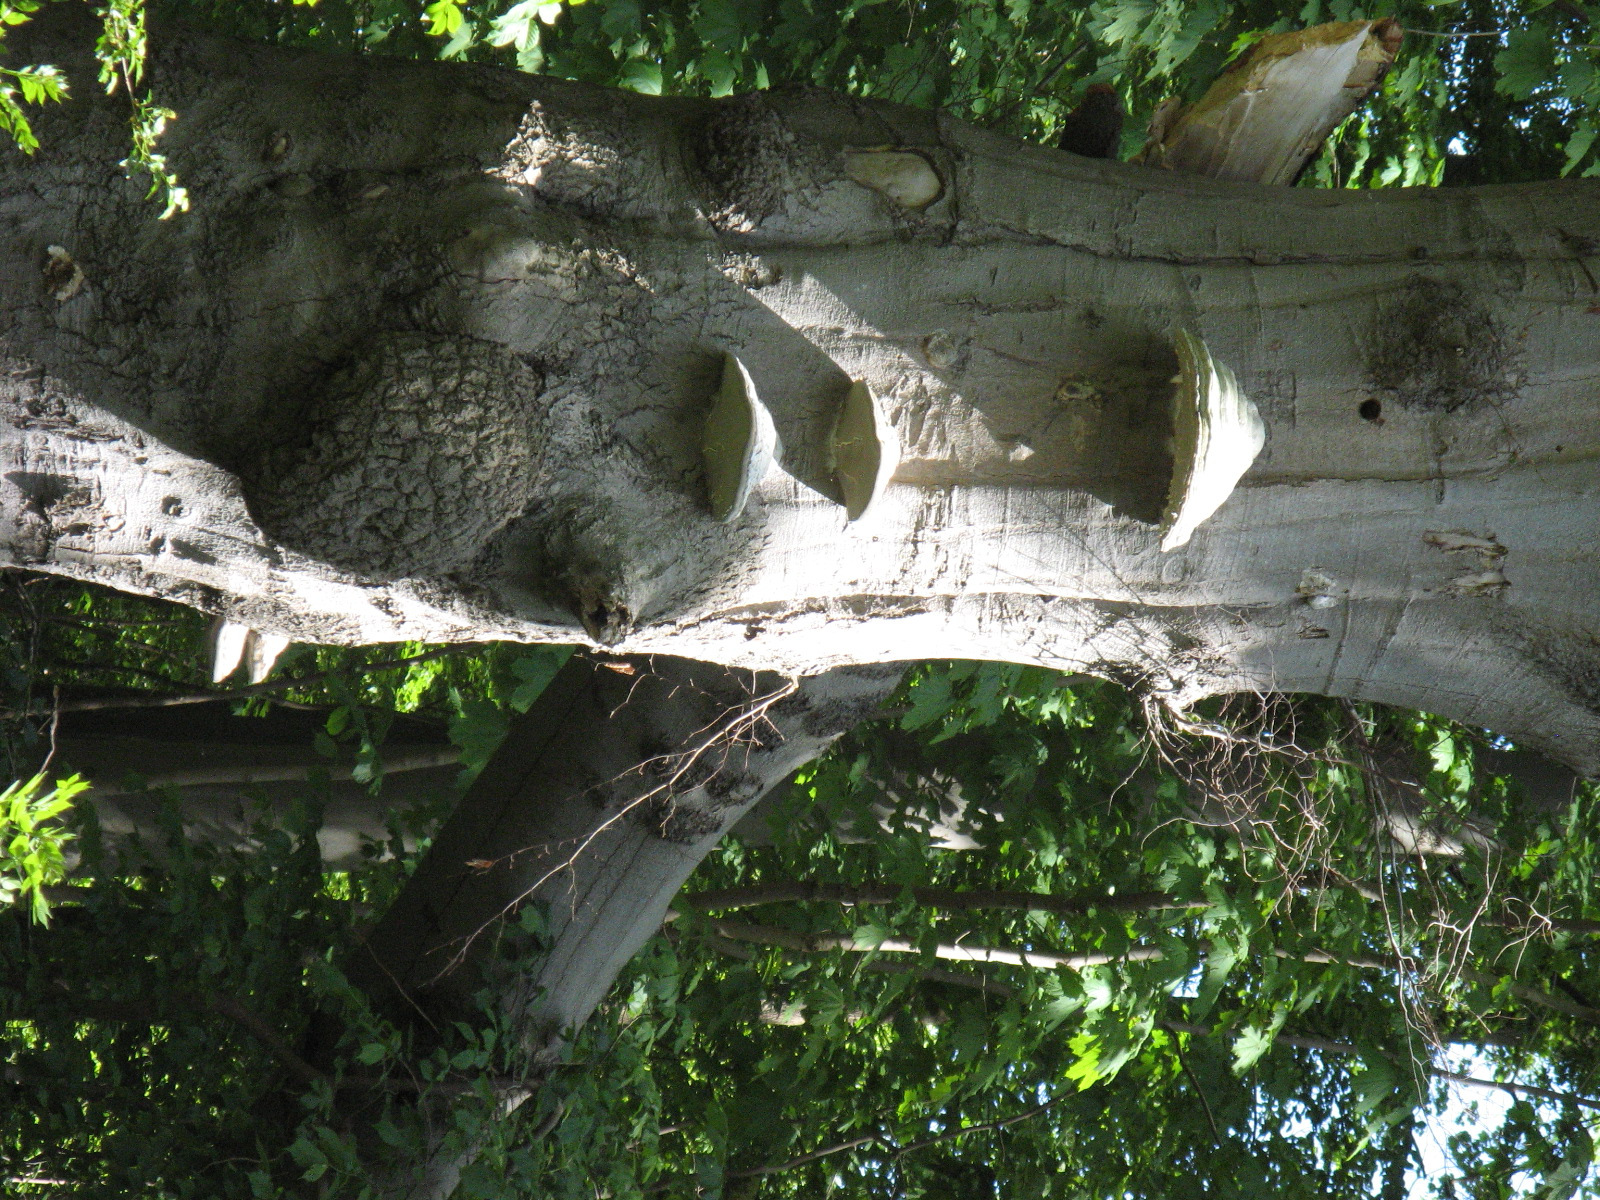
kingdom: Fungi
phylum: Basidiomycota
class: Agaricomycetes
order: Polyporales
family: Polyporaceae
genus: Fomes
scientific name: Fomes fomentarius
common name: tøndersvamp
